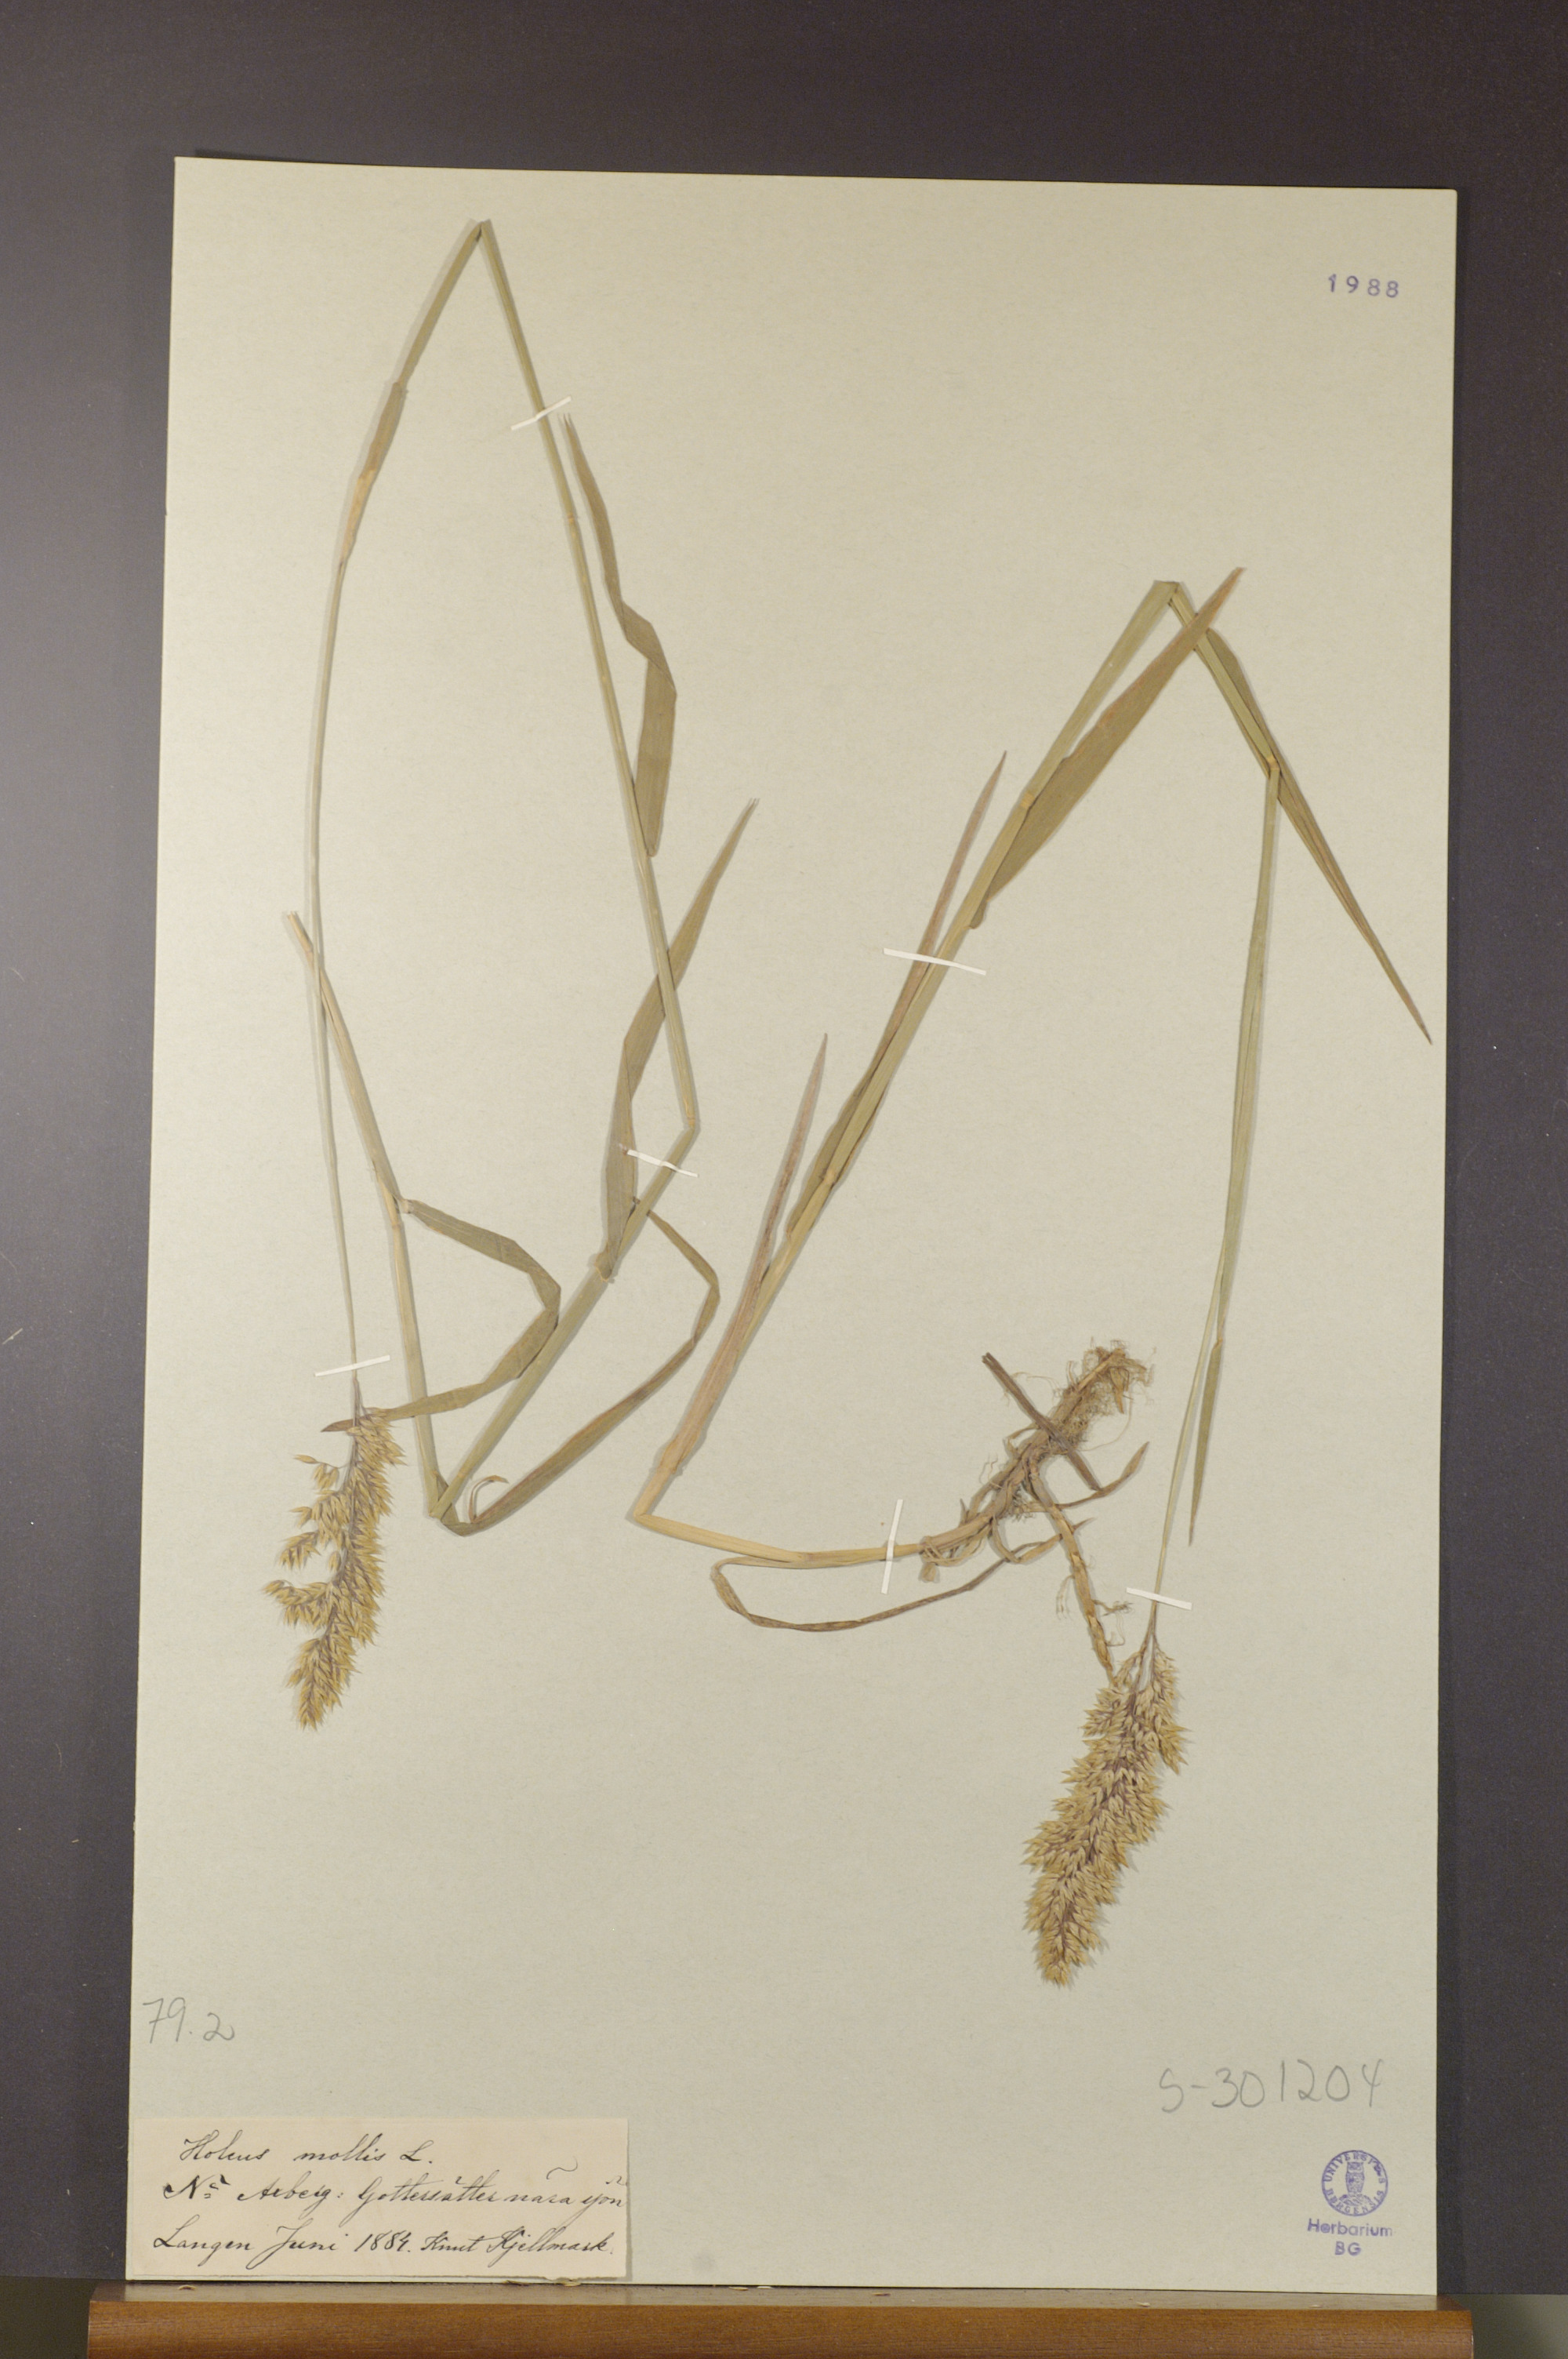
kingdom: Plantae
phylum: Tracheophyta
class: Liliopsida
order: Poales
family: Poaceae
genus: Holcus
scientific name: Holcus mollis
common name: Creeping velvetgrass
